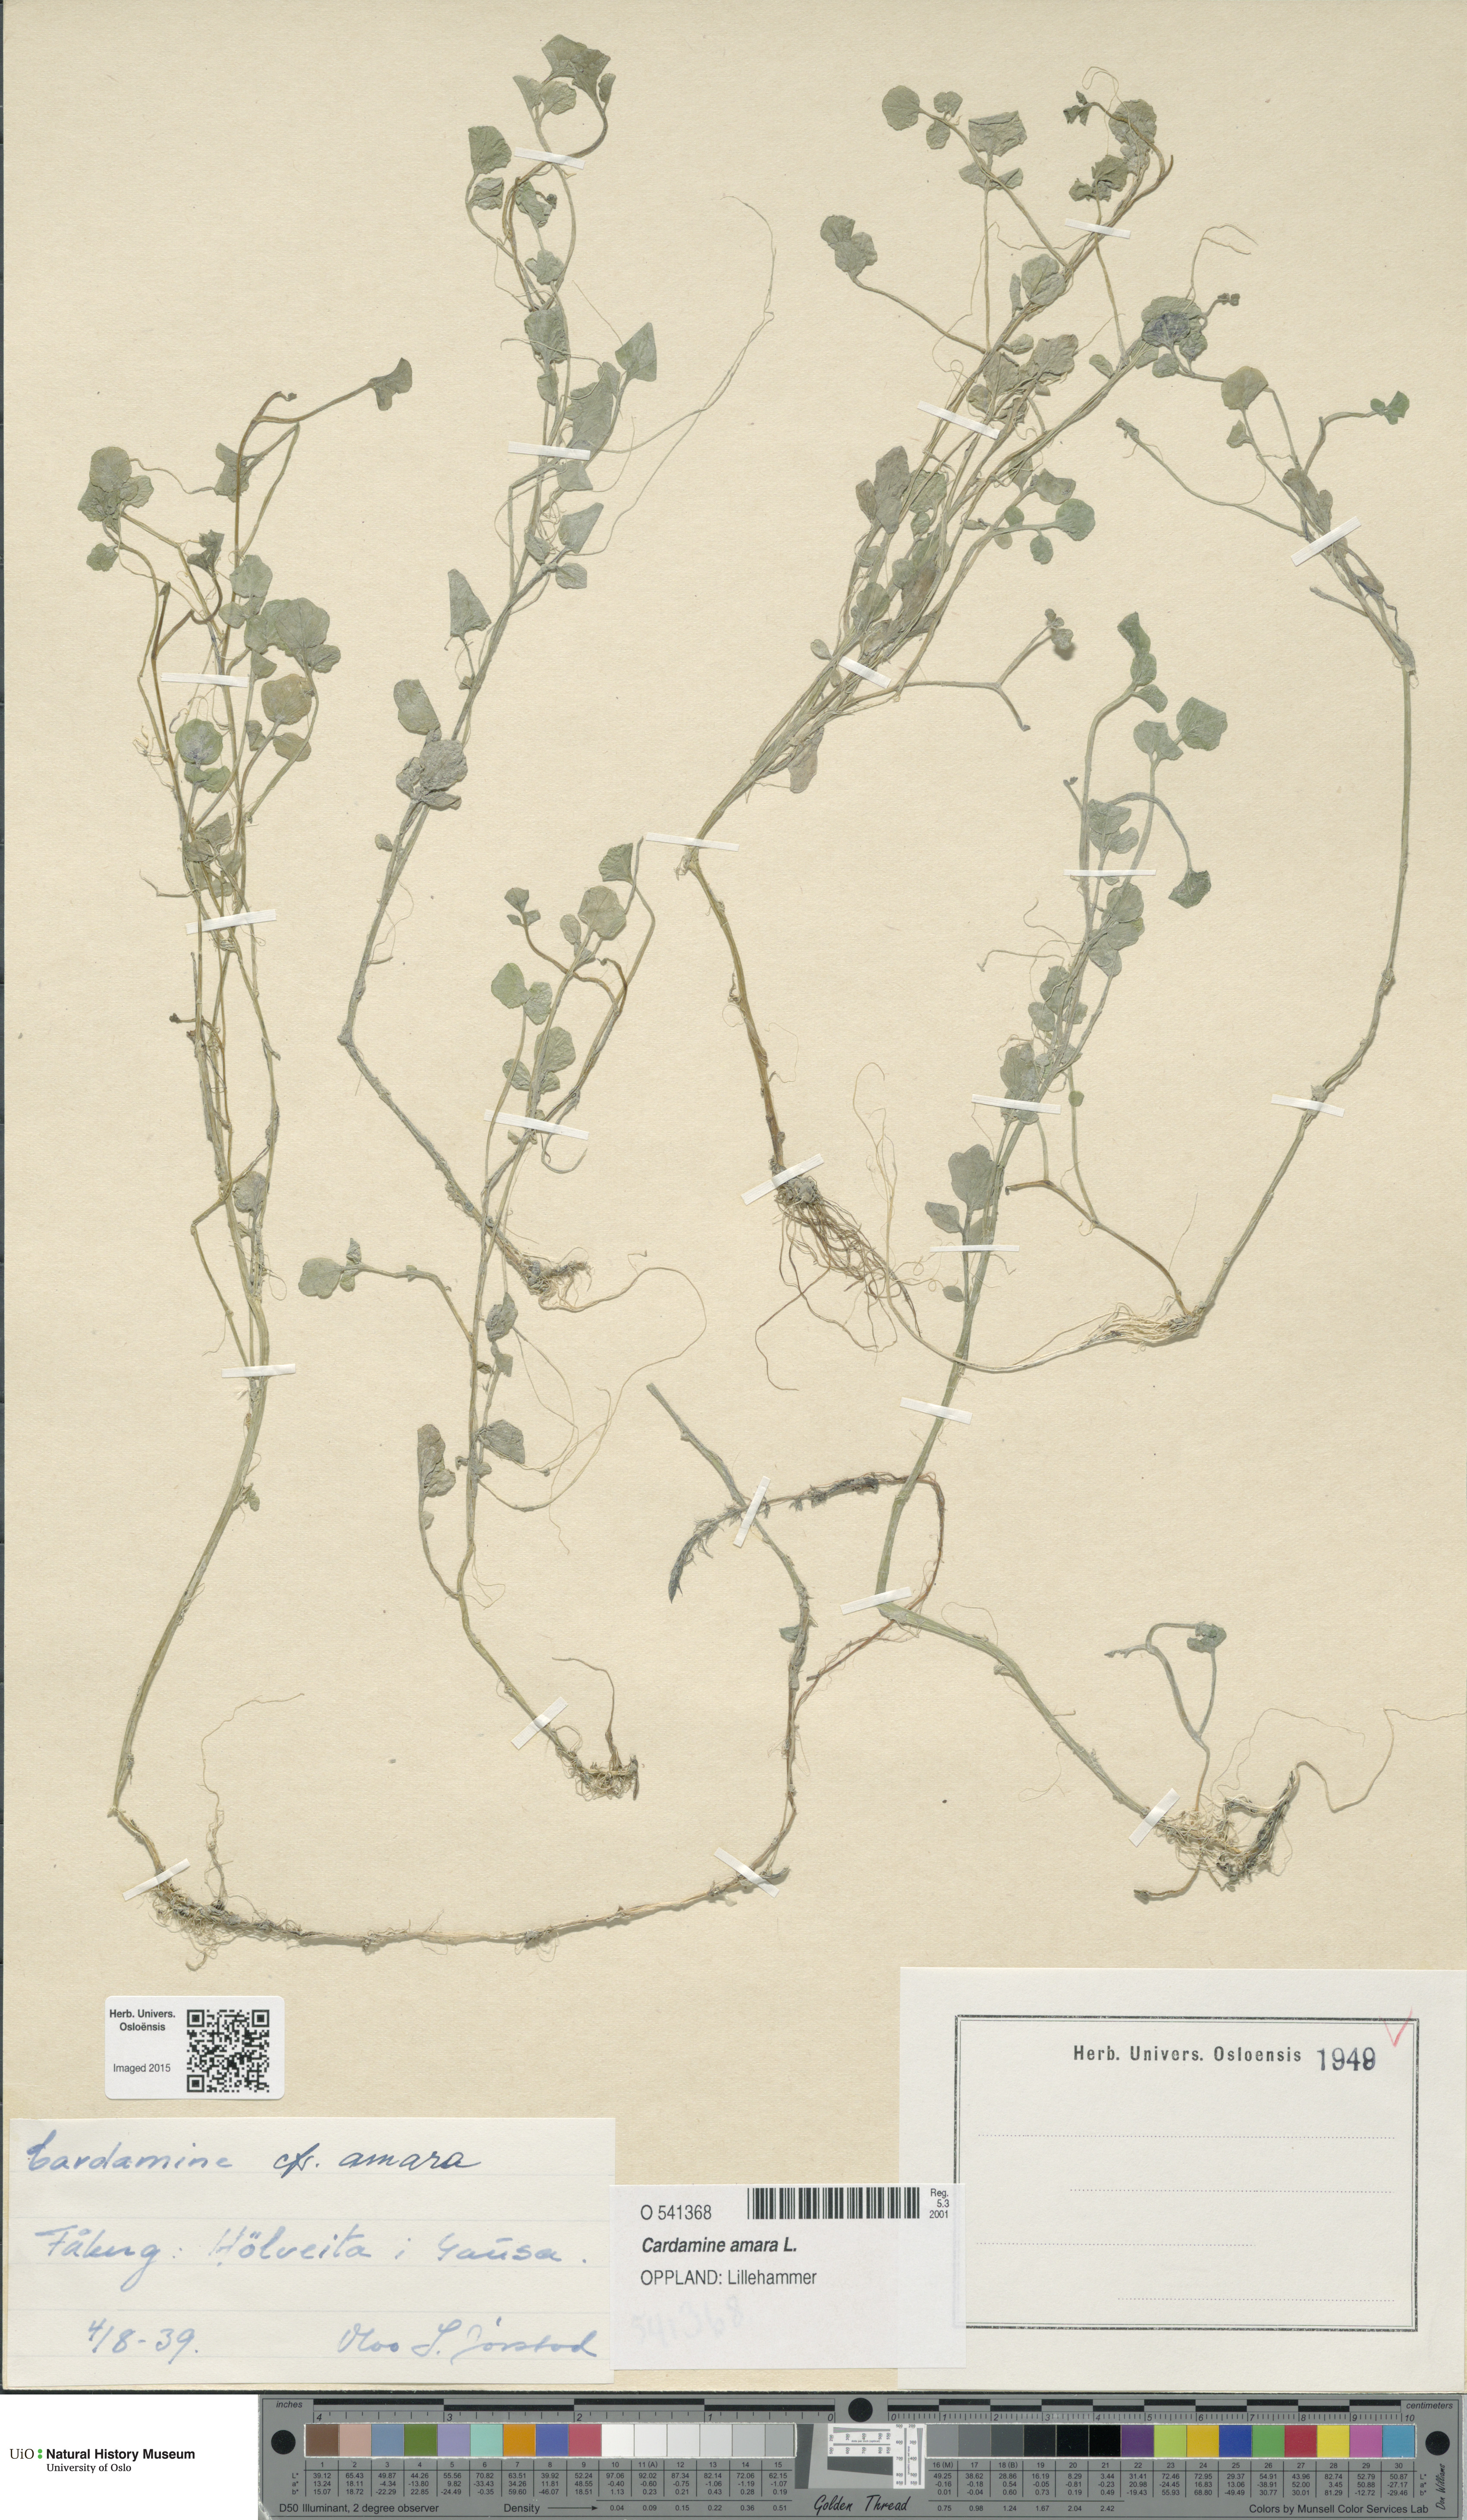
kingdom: Plantae
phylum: Tracheophyta
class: Magnoliopsida
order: Brassicales
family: Brassicaceae
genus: Cardamine
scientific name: Cardamine amara
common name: Large bitter-cress
